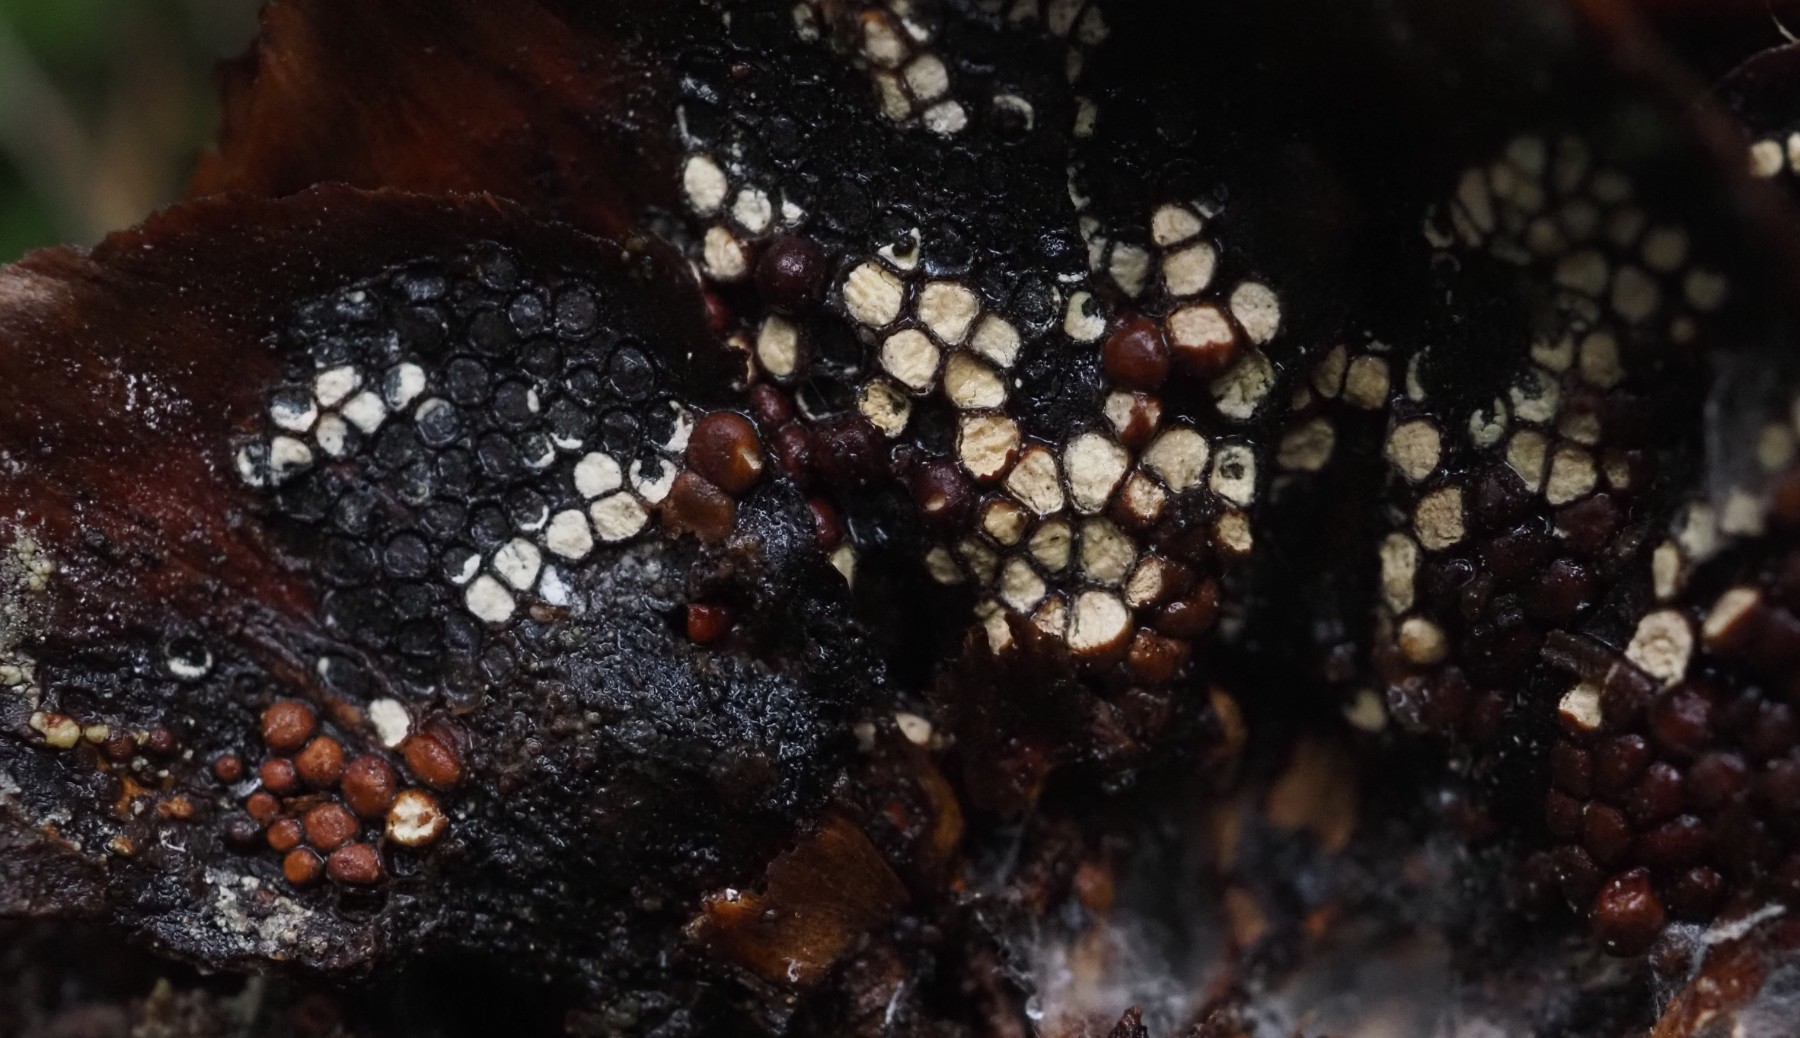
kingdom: Fungi
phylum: Basidiomycota
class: Pucciniomycetes
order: Pucciniales
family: Pucciniastraceae
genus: Thekopsora
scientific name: Thekopsora areolata
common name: grankogle-nålerust
